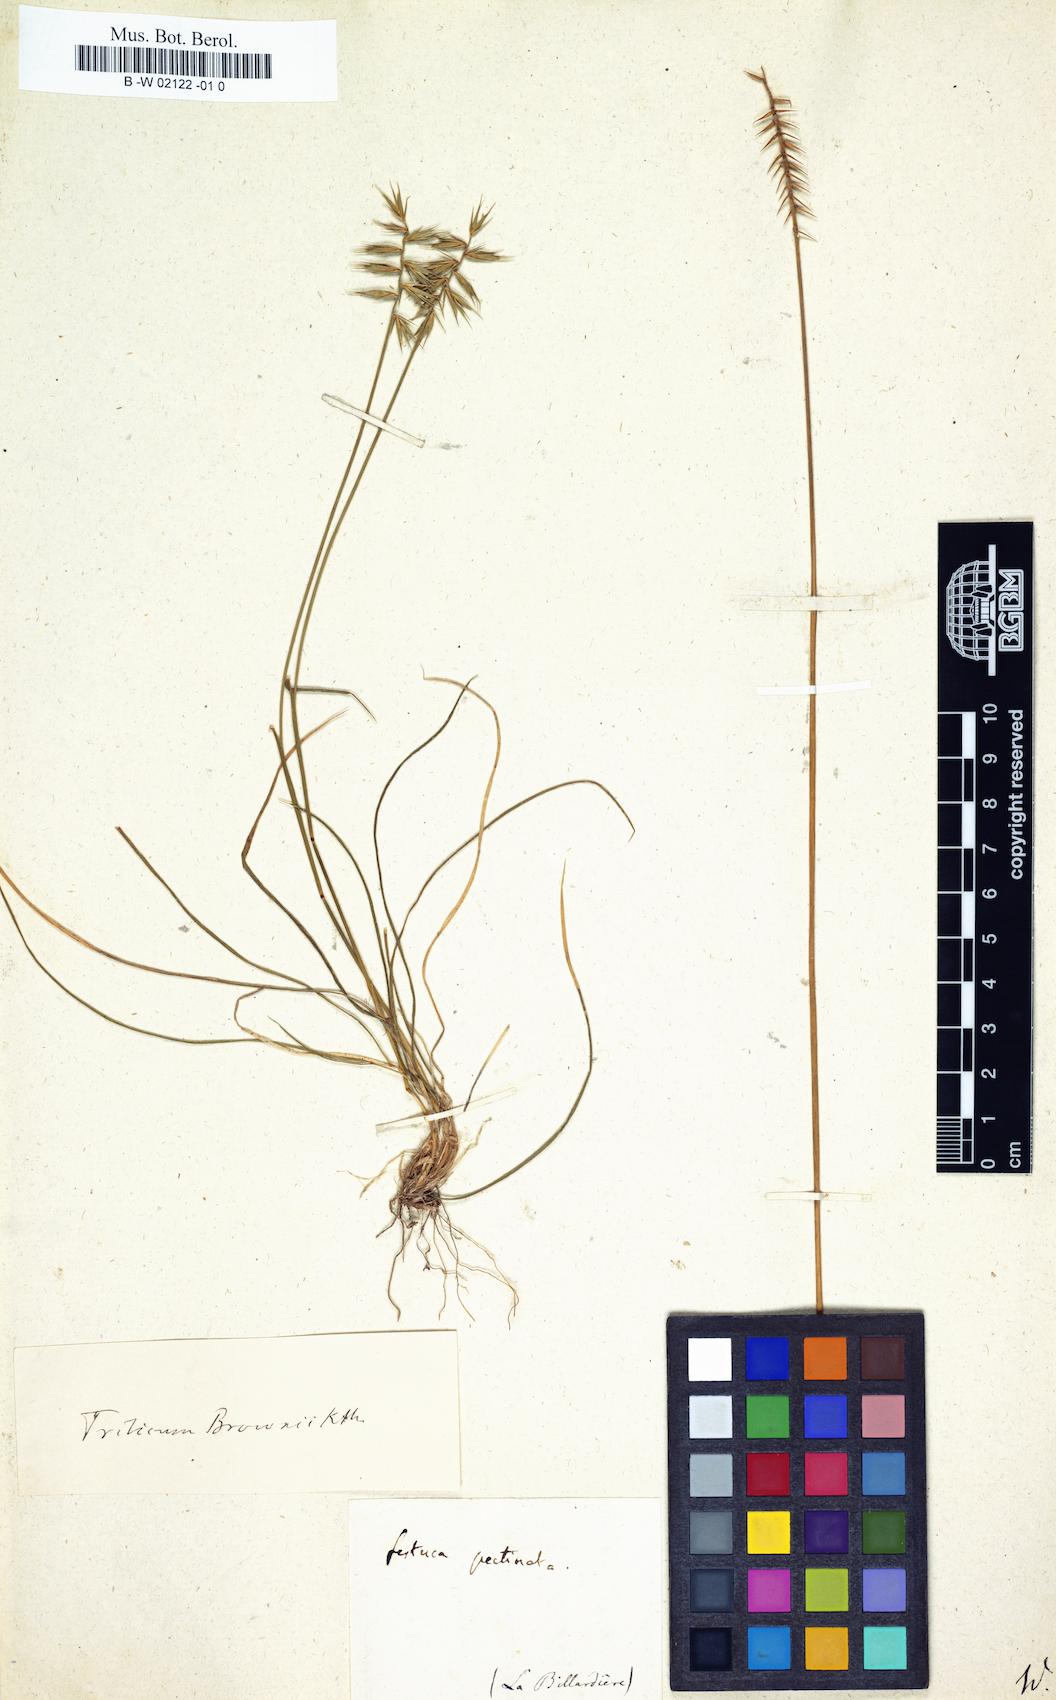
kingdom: Plantae
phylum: Tracheophyta
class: Liliopsida
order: Poales
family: Poaceae
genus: Australopyrum
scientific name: Australopyrum pectinatum
